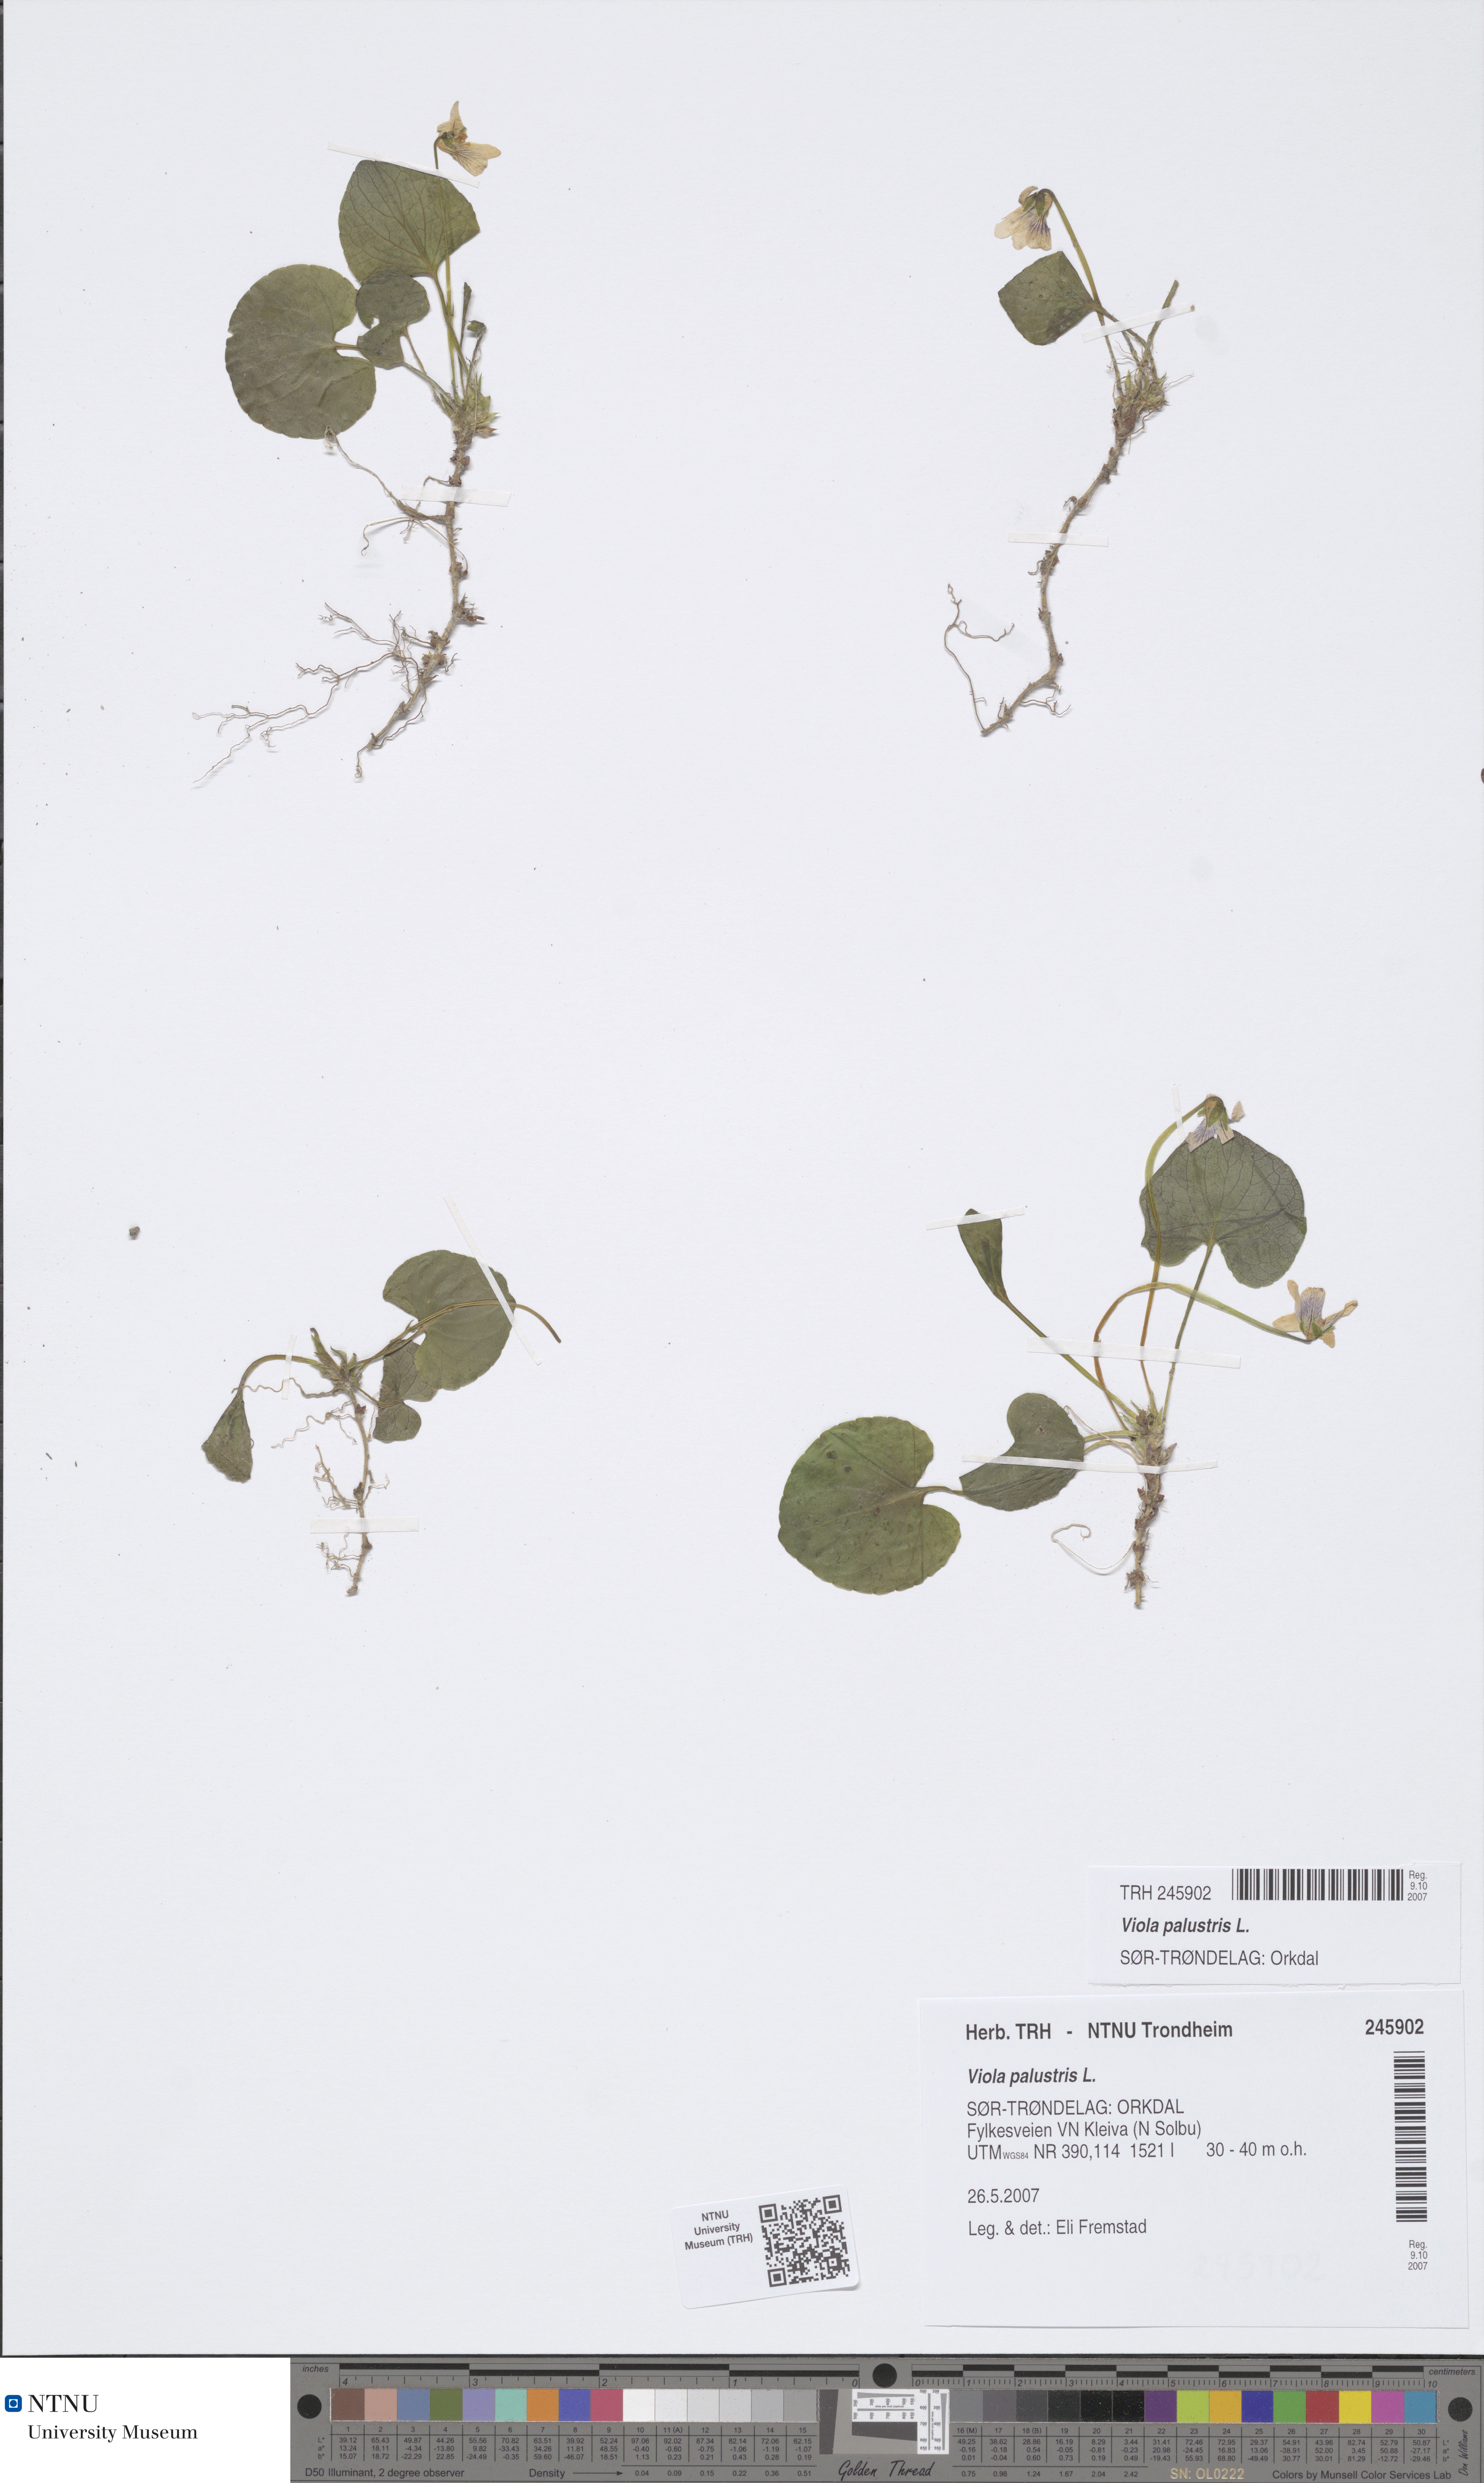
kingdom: Plantae
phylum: Tracheophyta
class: Magnoliopsida
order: Malpighiales
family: Violaceae
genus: Viola
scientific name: Viola palustris
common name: Marsh violet
